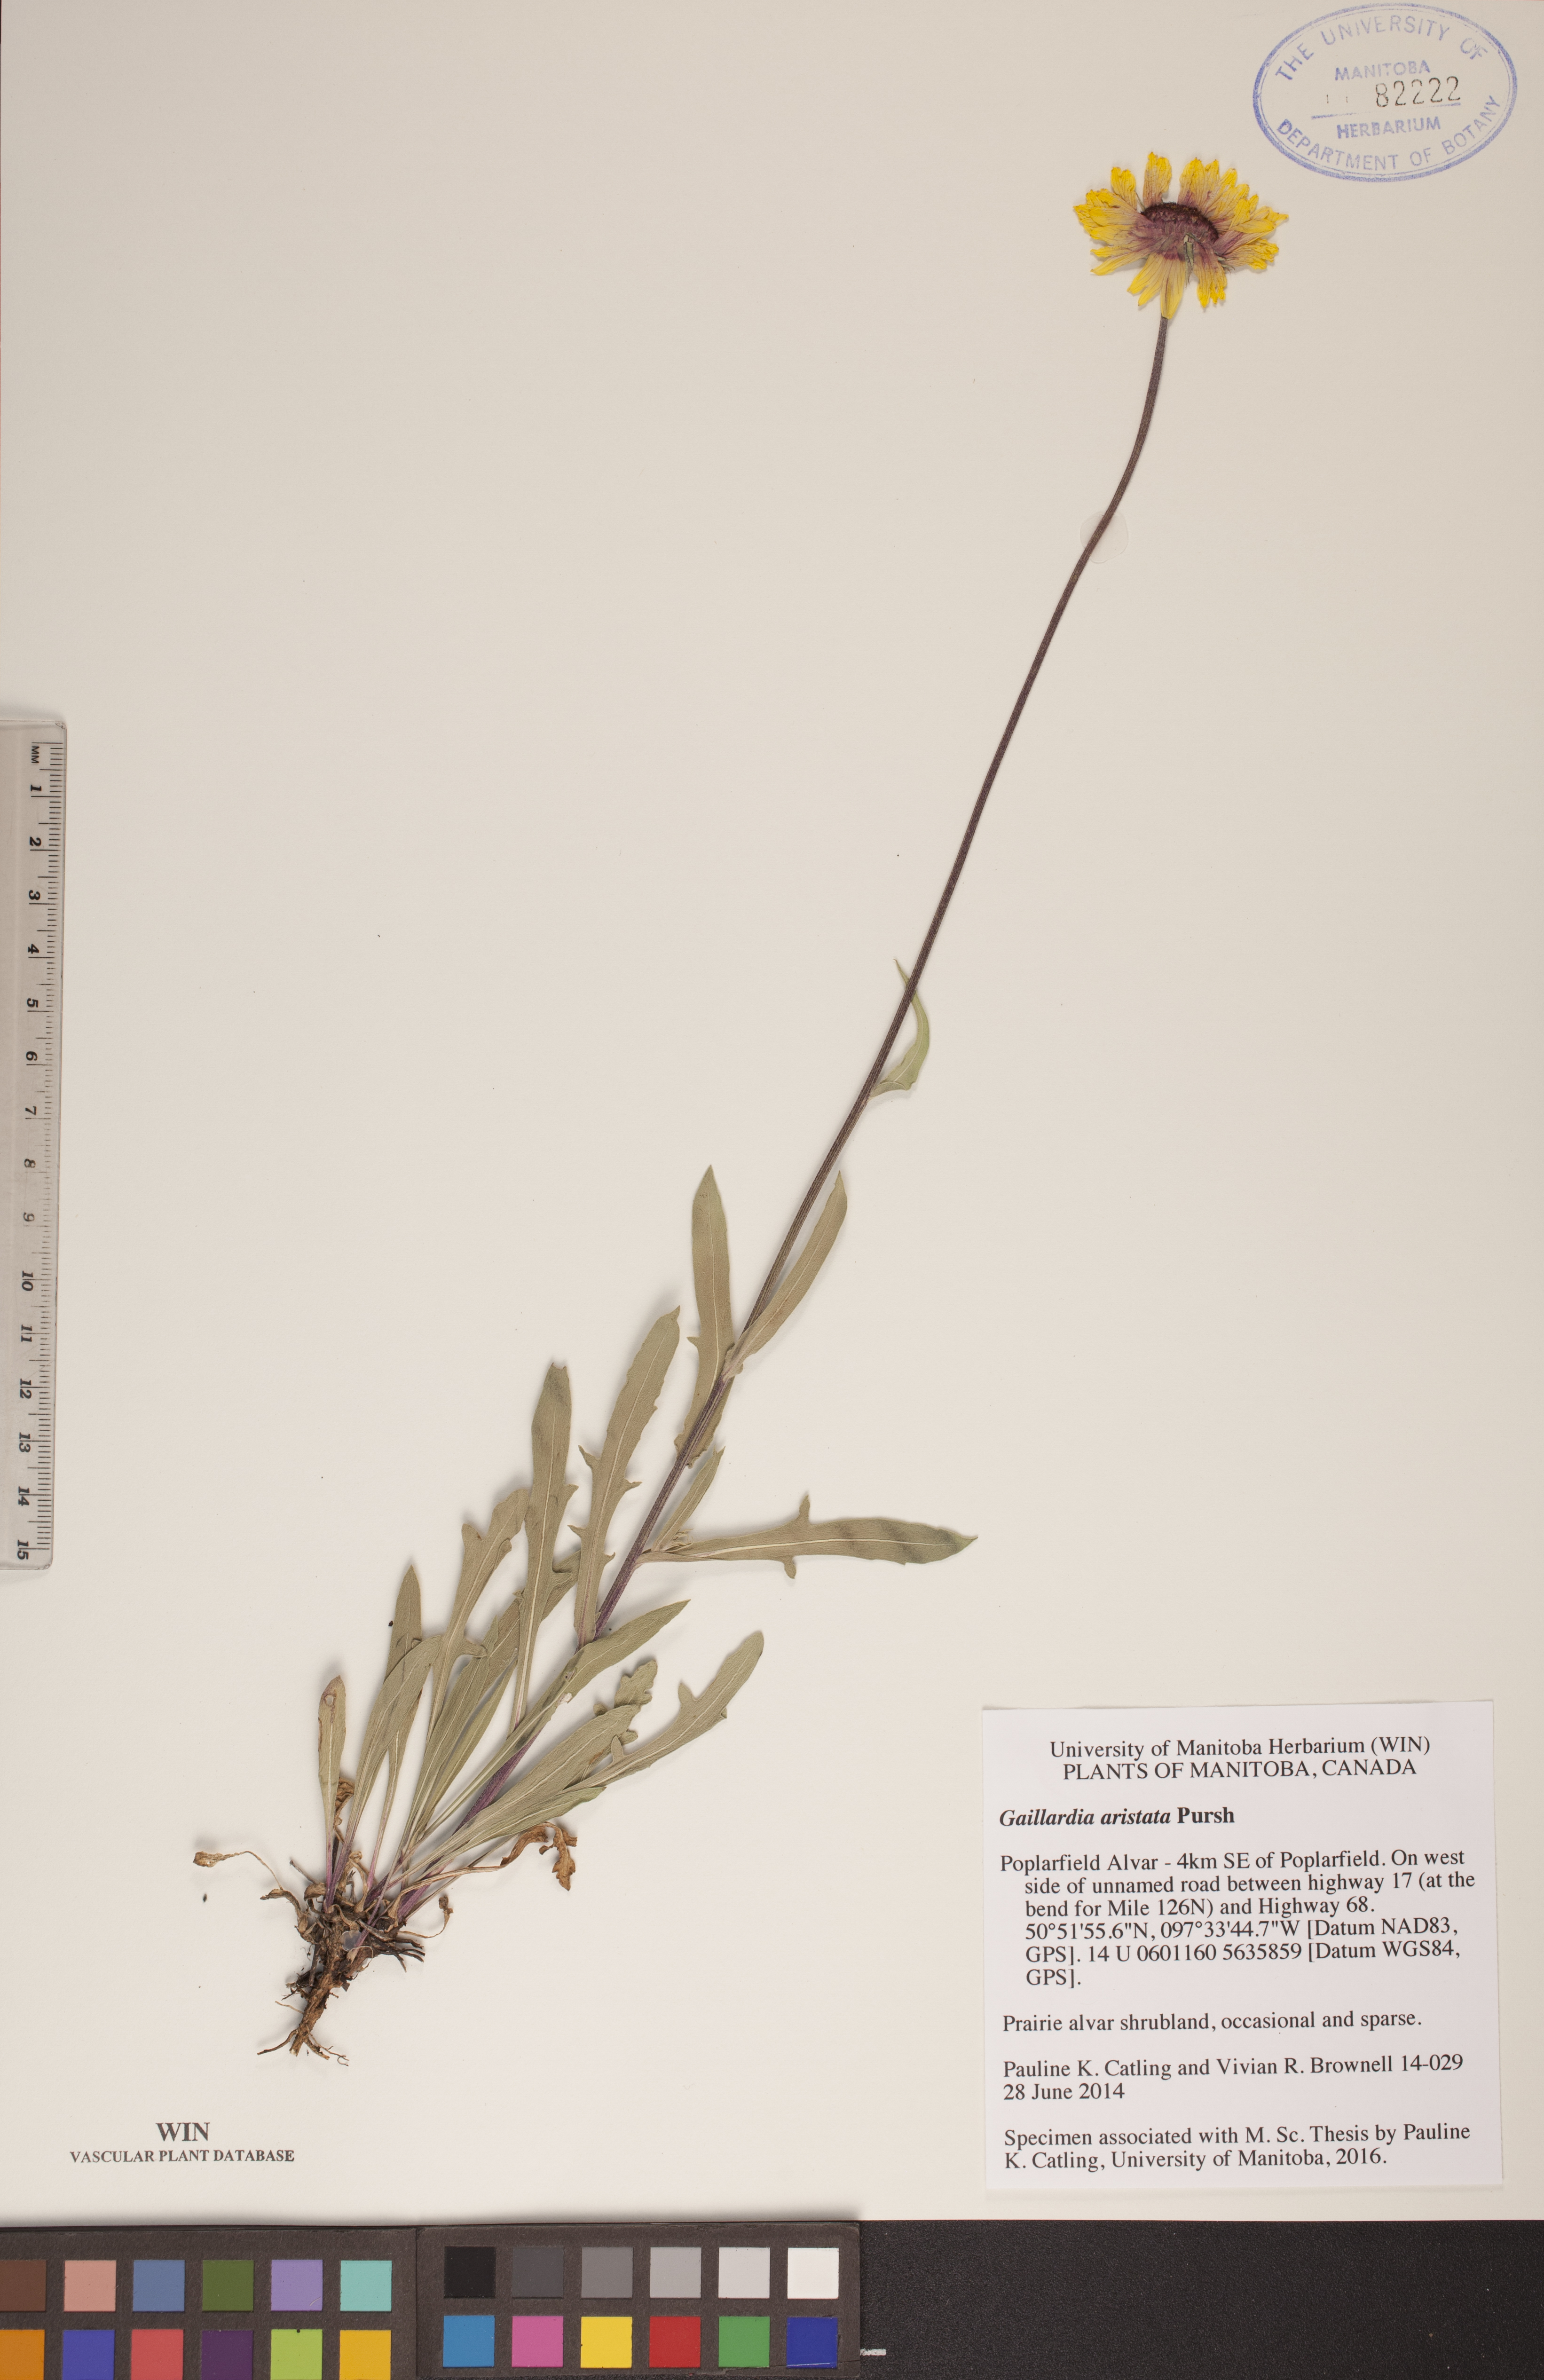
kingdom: Plantae
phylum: Tracheophyta
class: Magnoliopsida
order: Asterales
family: Asteraceae
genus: Gaillardia
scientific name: Gaillardia aristata
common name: Blanket-flower
